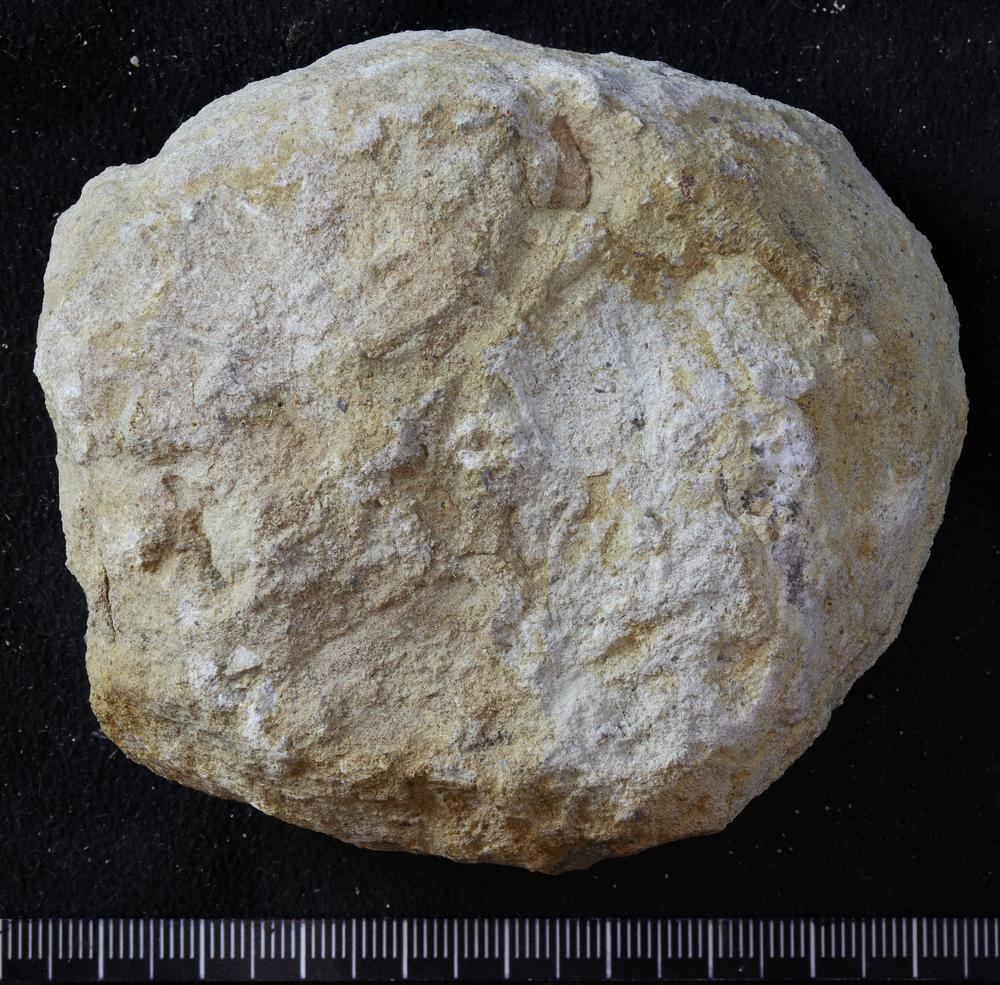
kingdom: Animalia
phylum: Bryozoa
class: Stenolaemata
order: Trepostomatida
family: Diplotrypidae
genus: Diplotrypa
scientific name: Diplotrypa petropolitana
